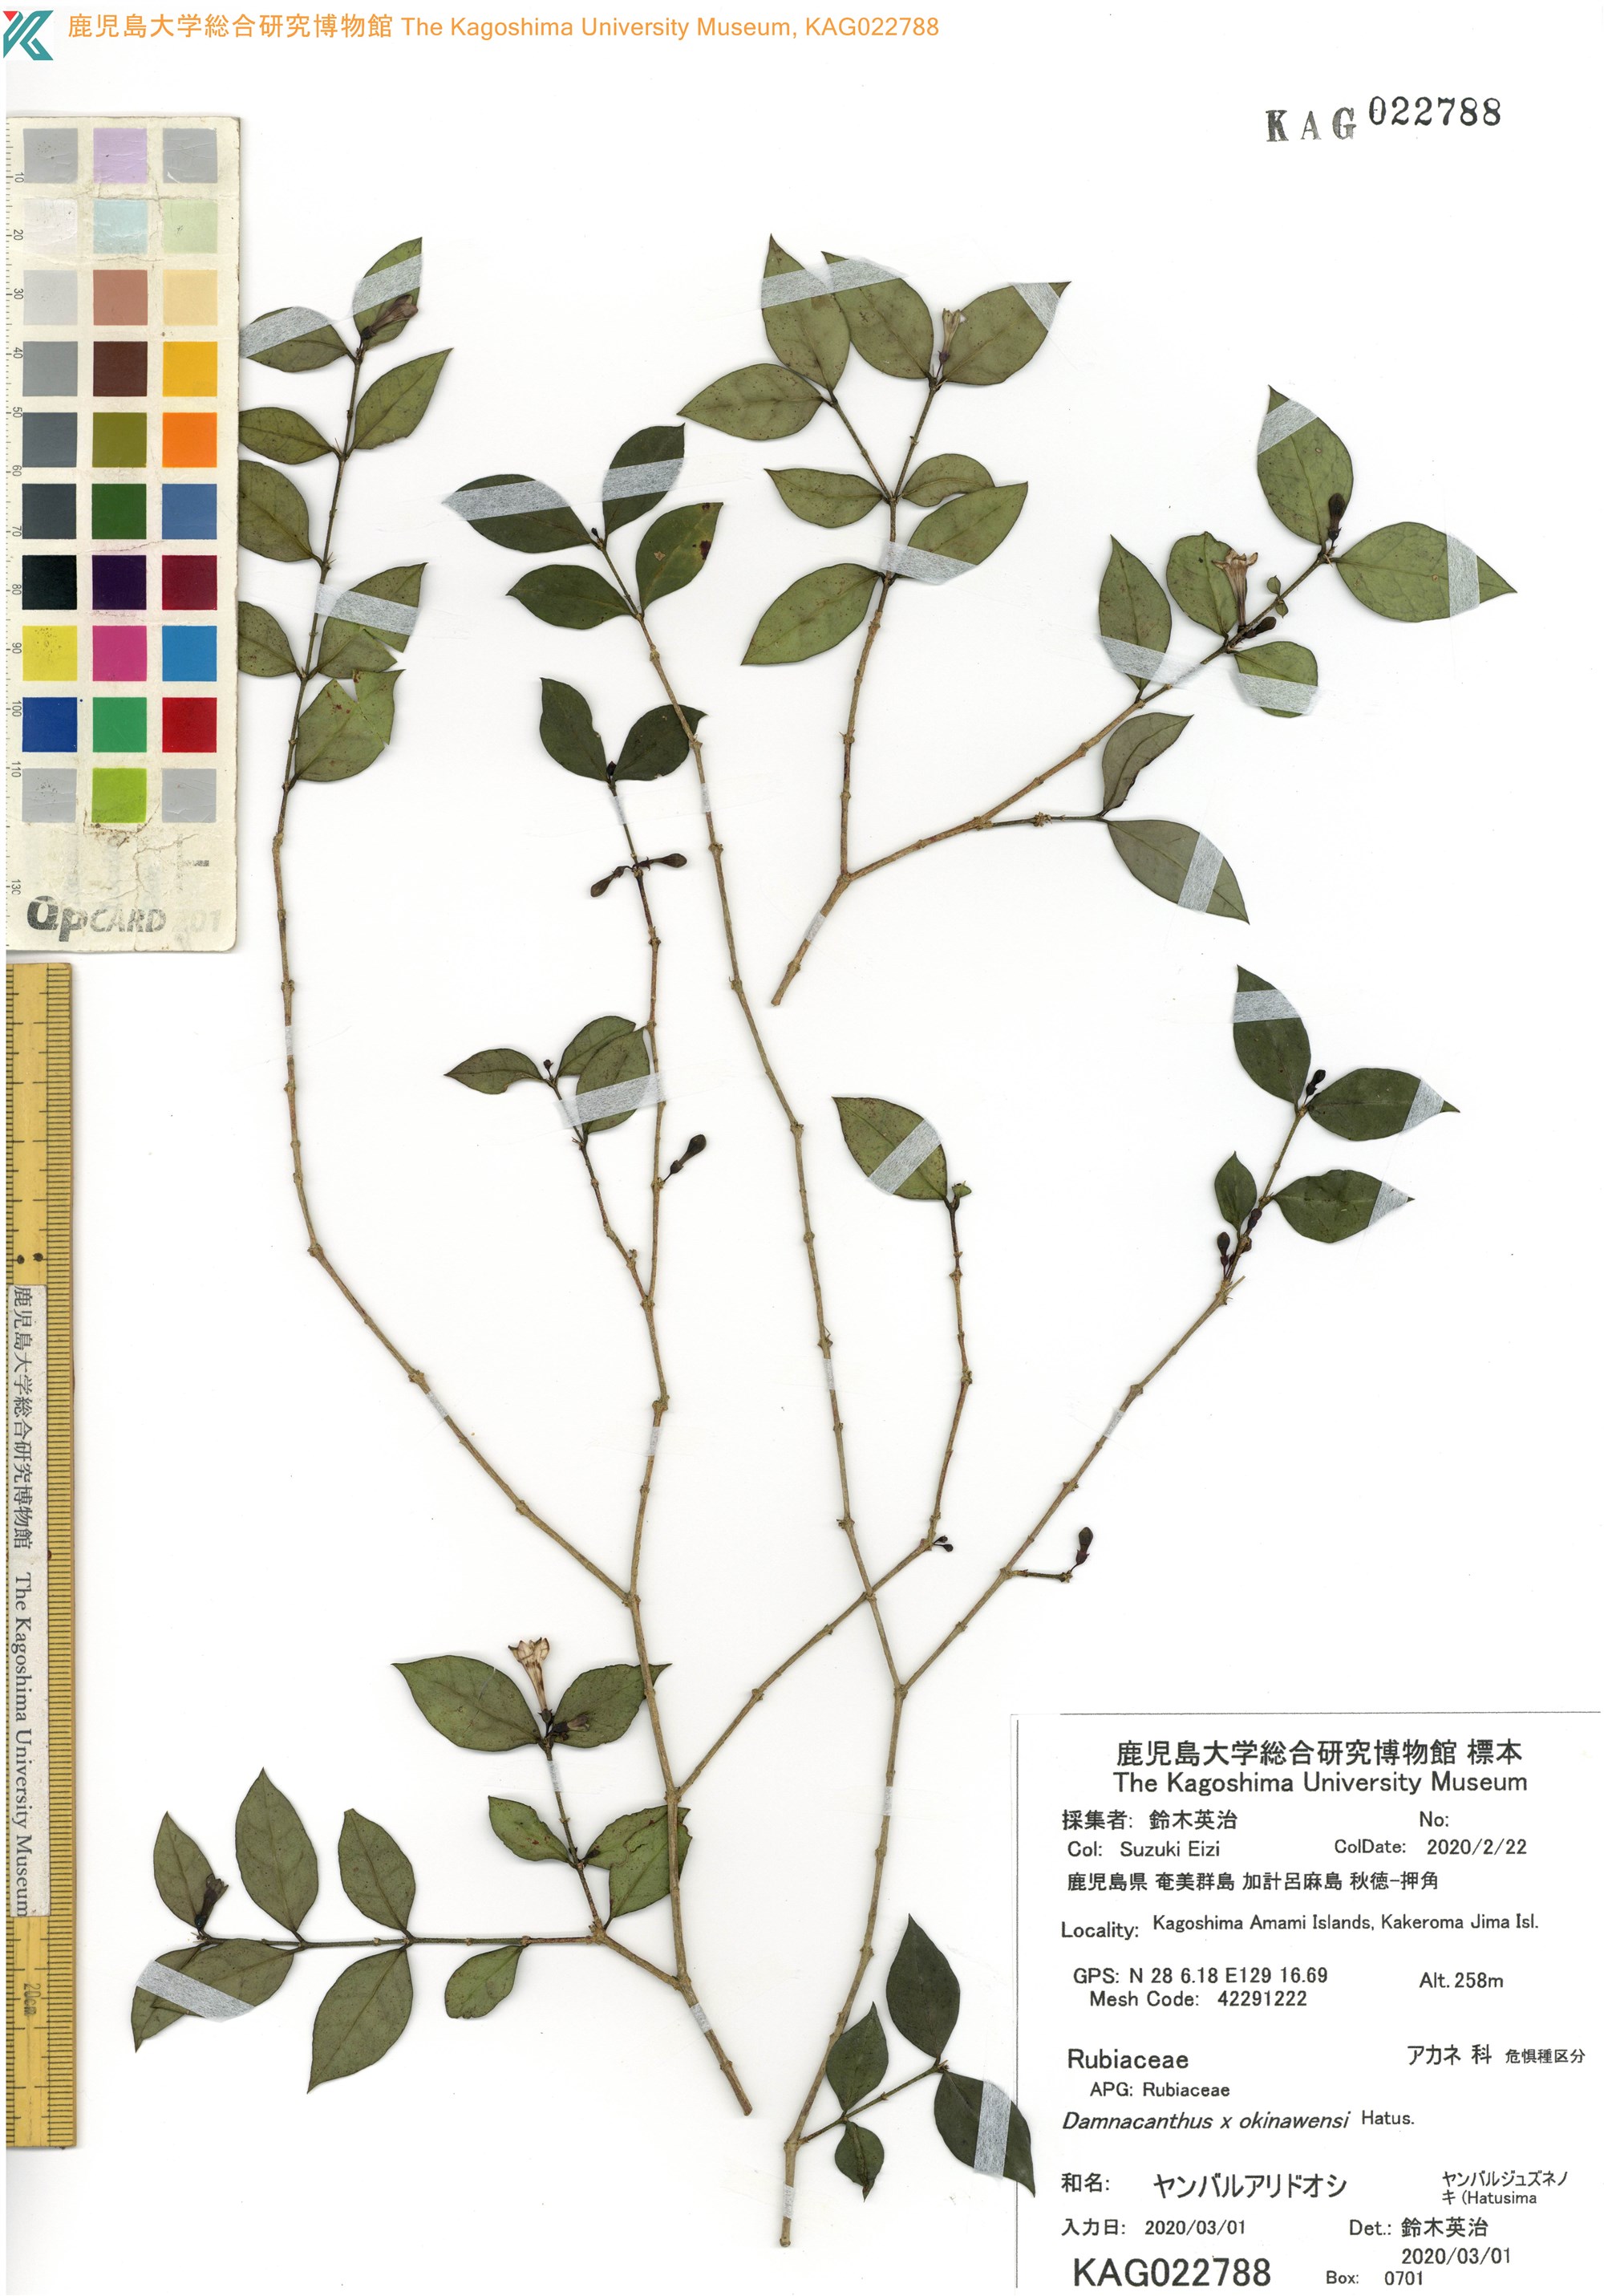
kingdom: Plantae
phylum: Tracheophyta
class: Magnoliopsida
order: Gentianales
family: Rubiaceae
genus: Damnacanthus
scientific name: Damnacanthus okinawensis
